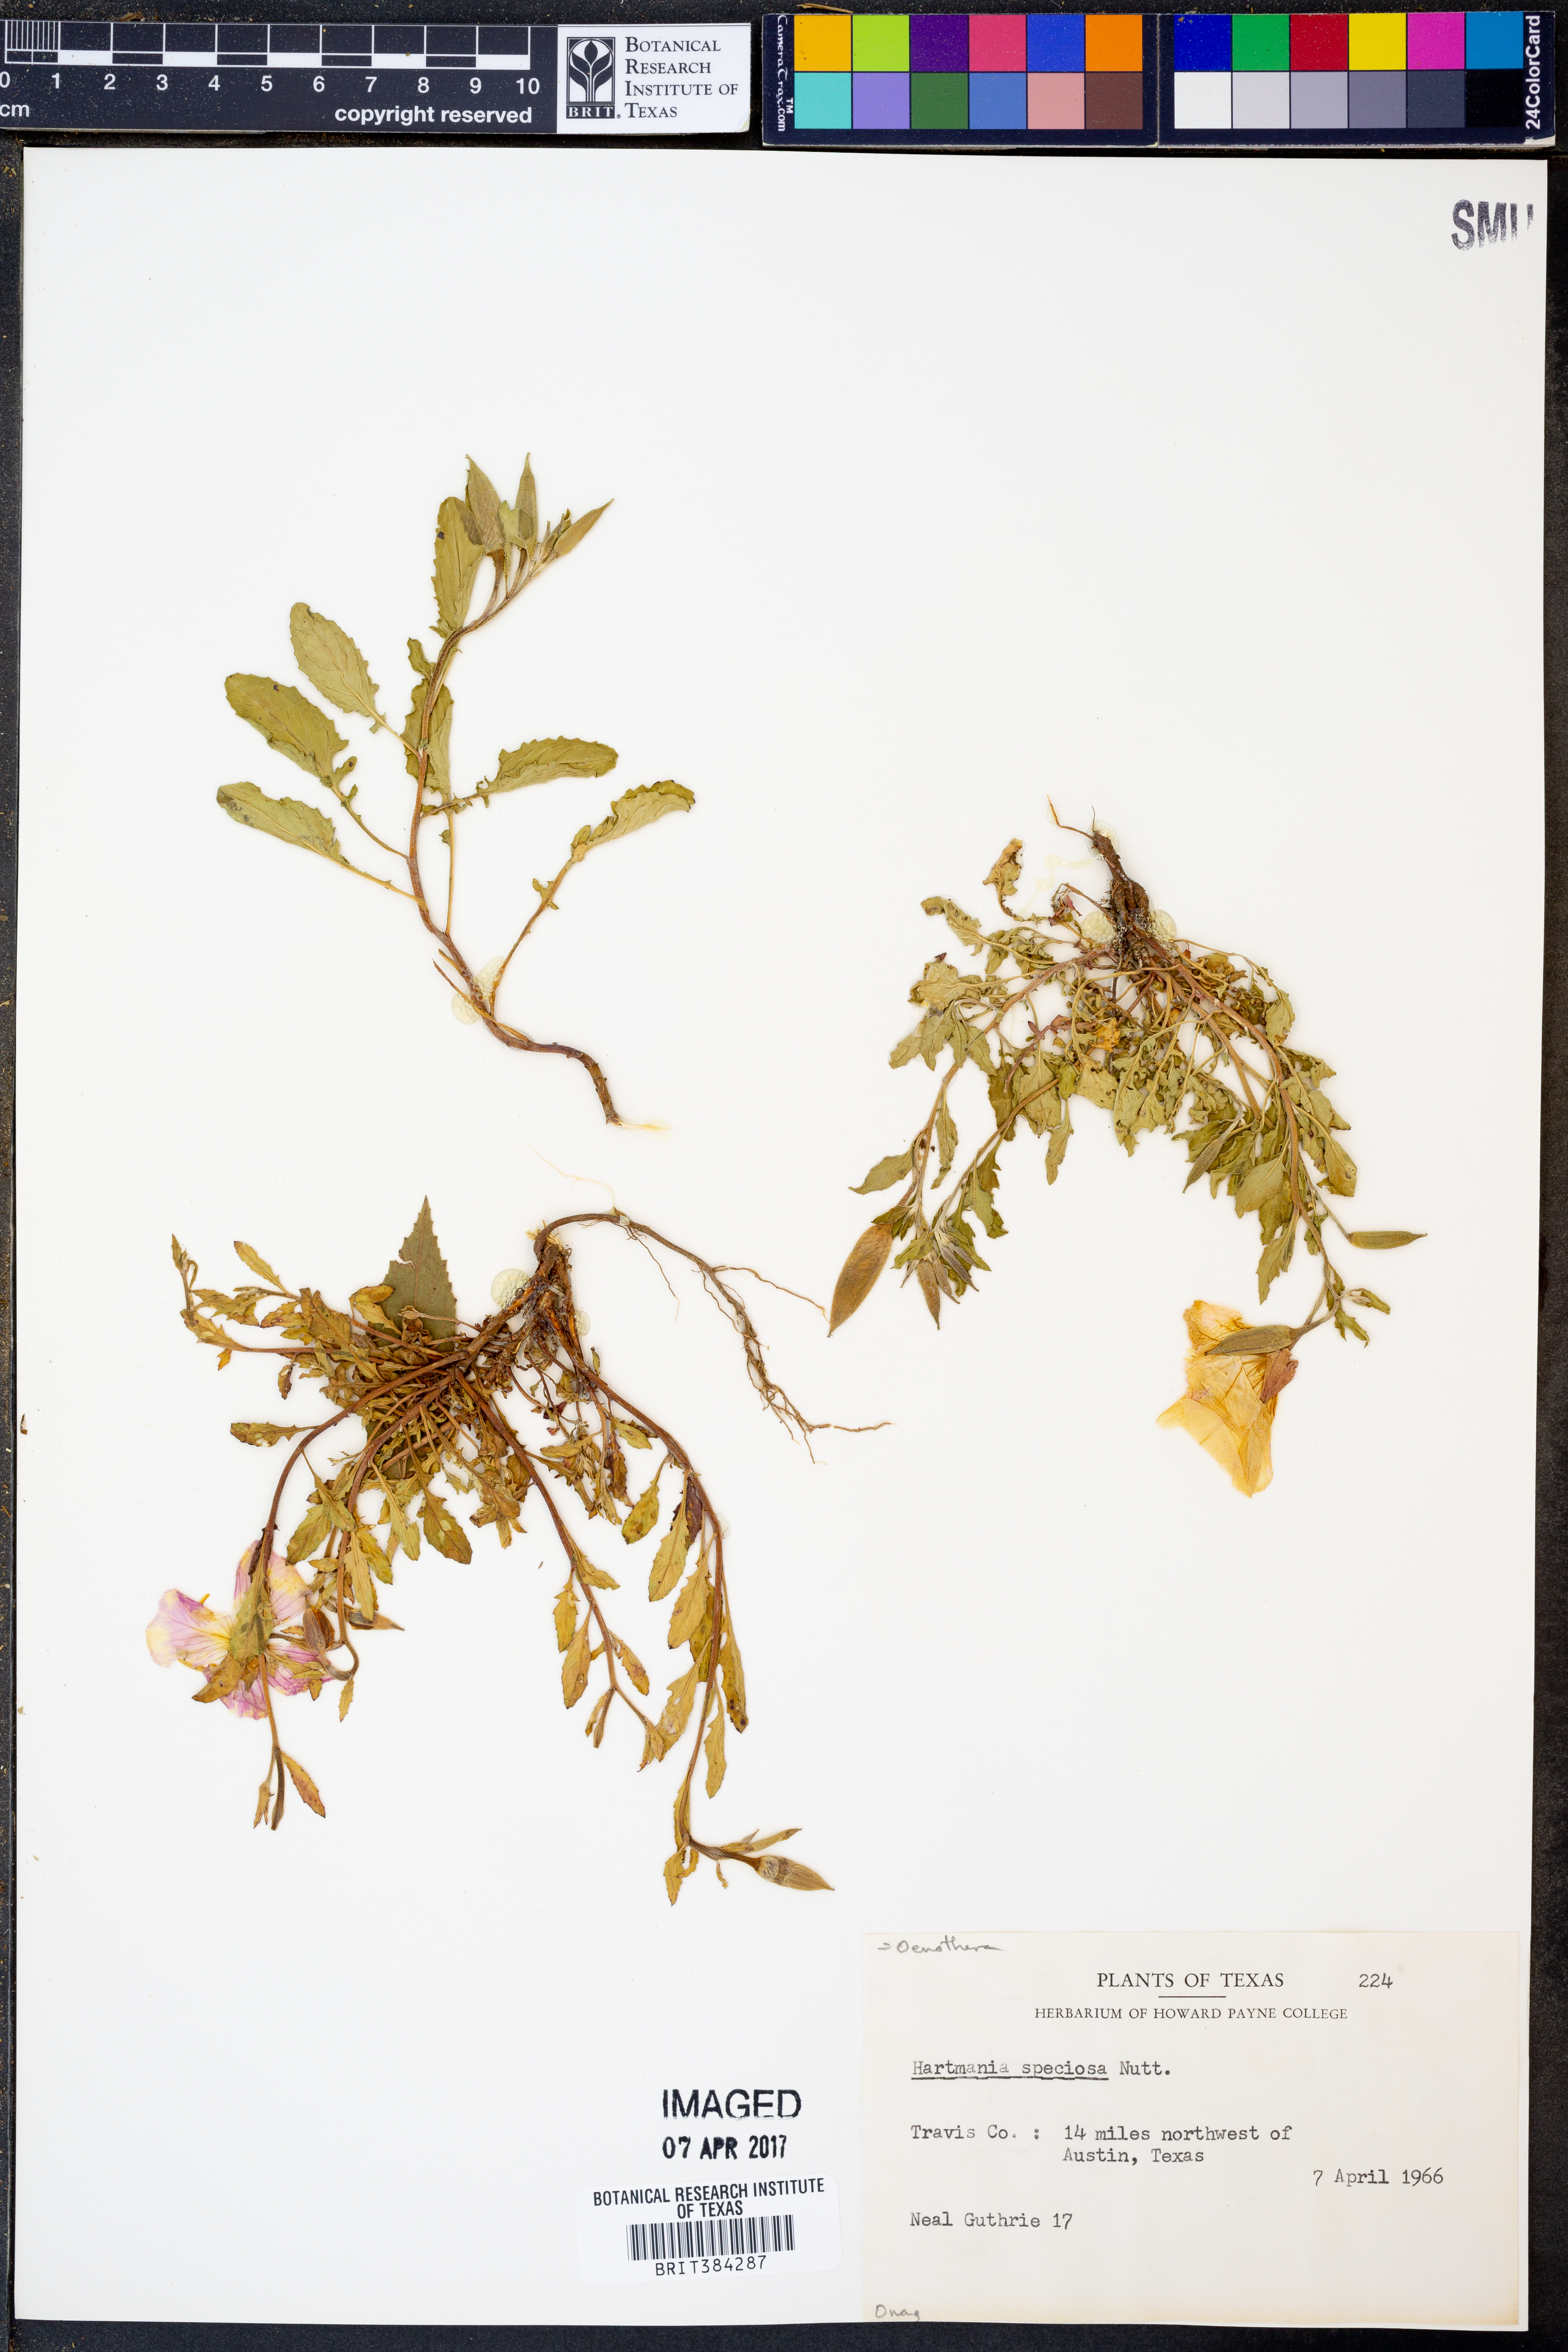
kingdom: Plantae
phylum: Tracheophyta
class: Magnoliopsida
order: Myrtales
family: Onagraceae
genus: Oenothera
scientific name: Oenothera speciosa
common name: White evening-primrose
